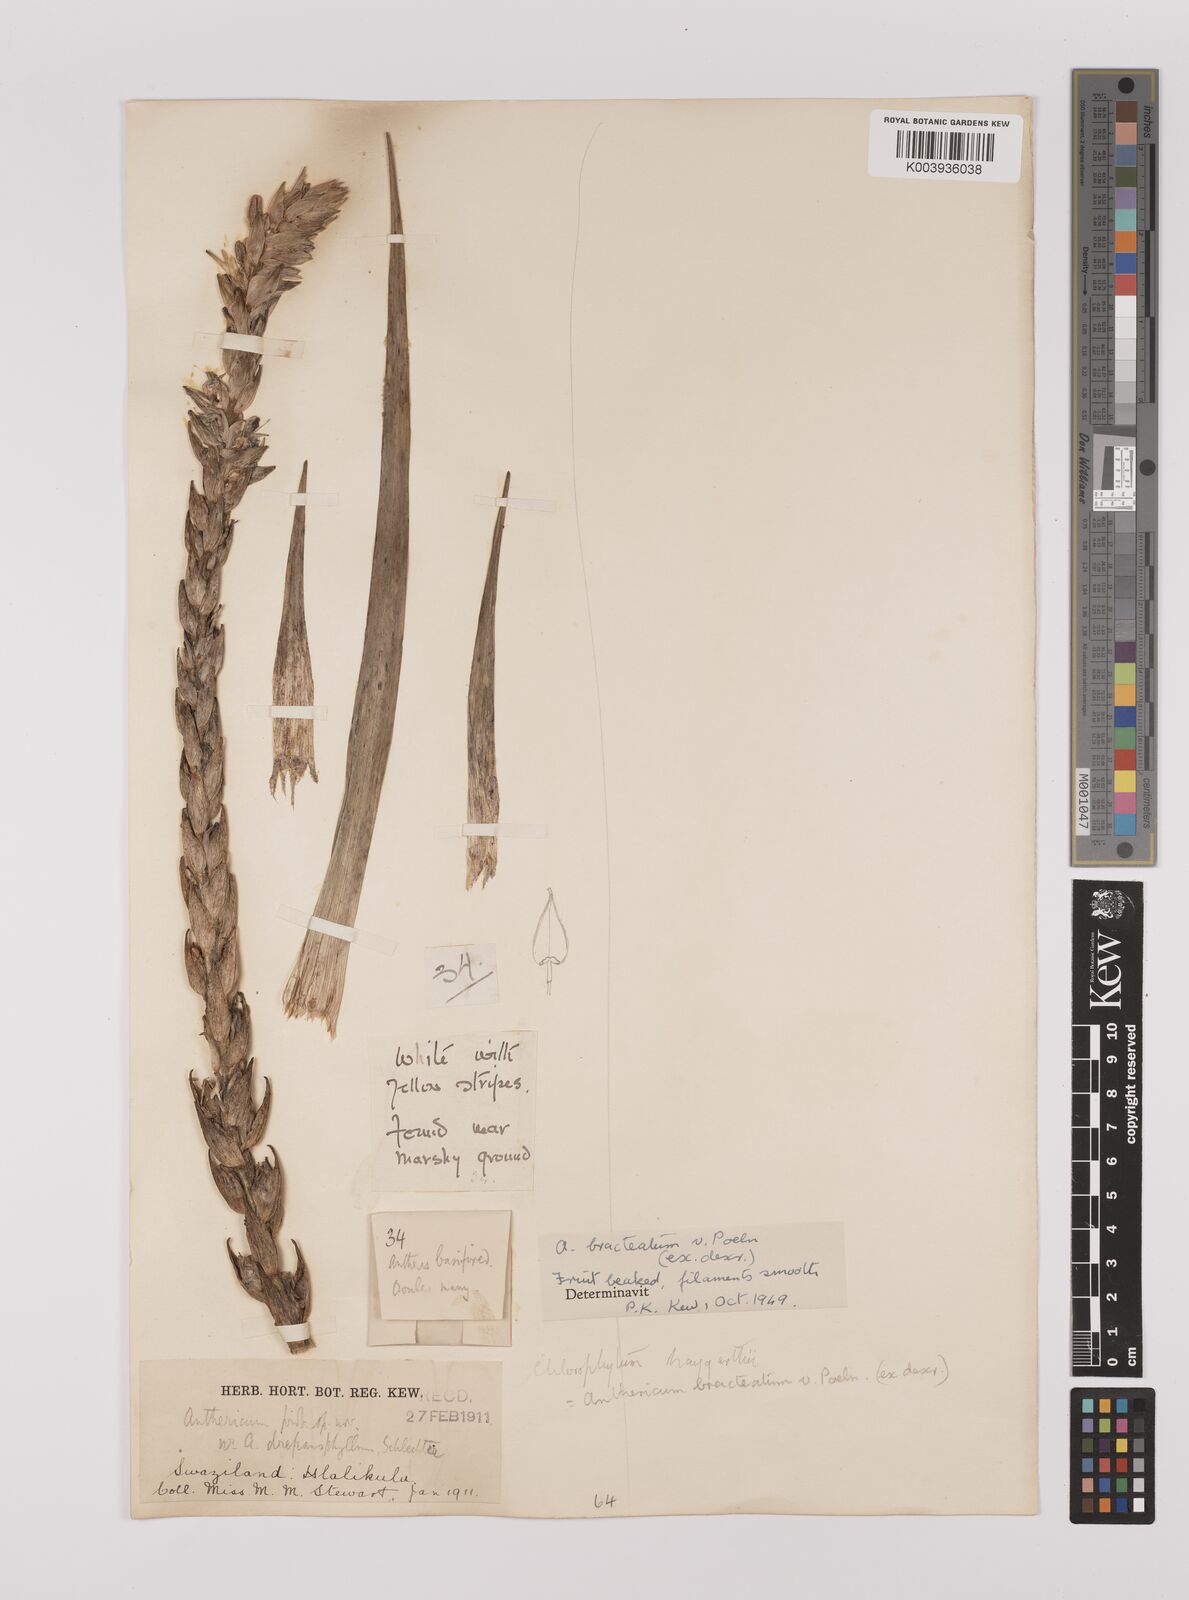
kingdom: Plantae
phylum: Tracheophyta
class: Liliopsida
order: Asparagales
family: Asparagaceae
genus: Chlorophytum
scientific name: Chlorophytum haygarthii
